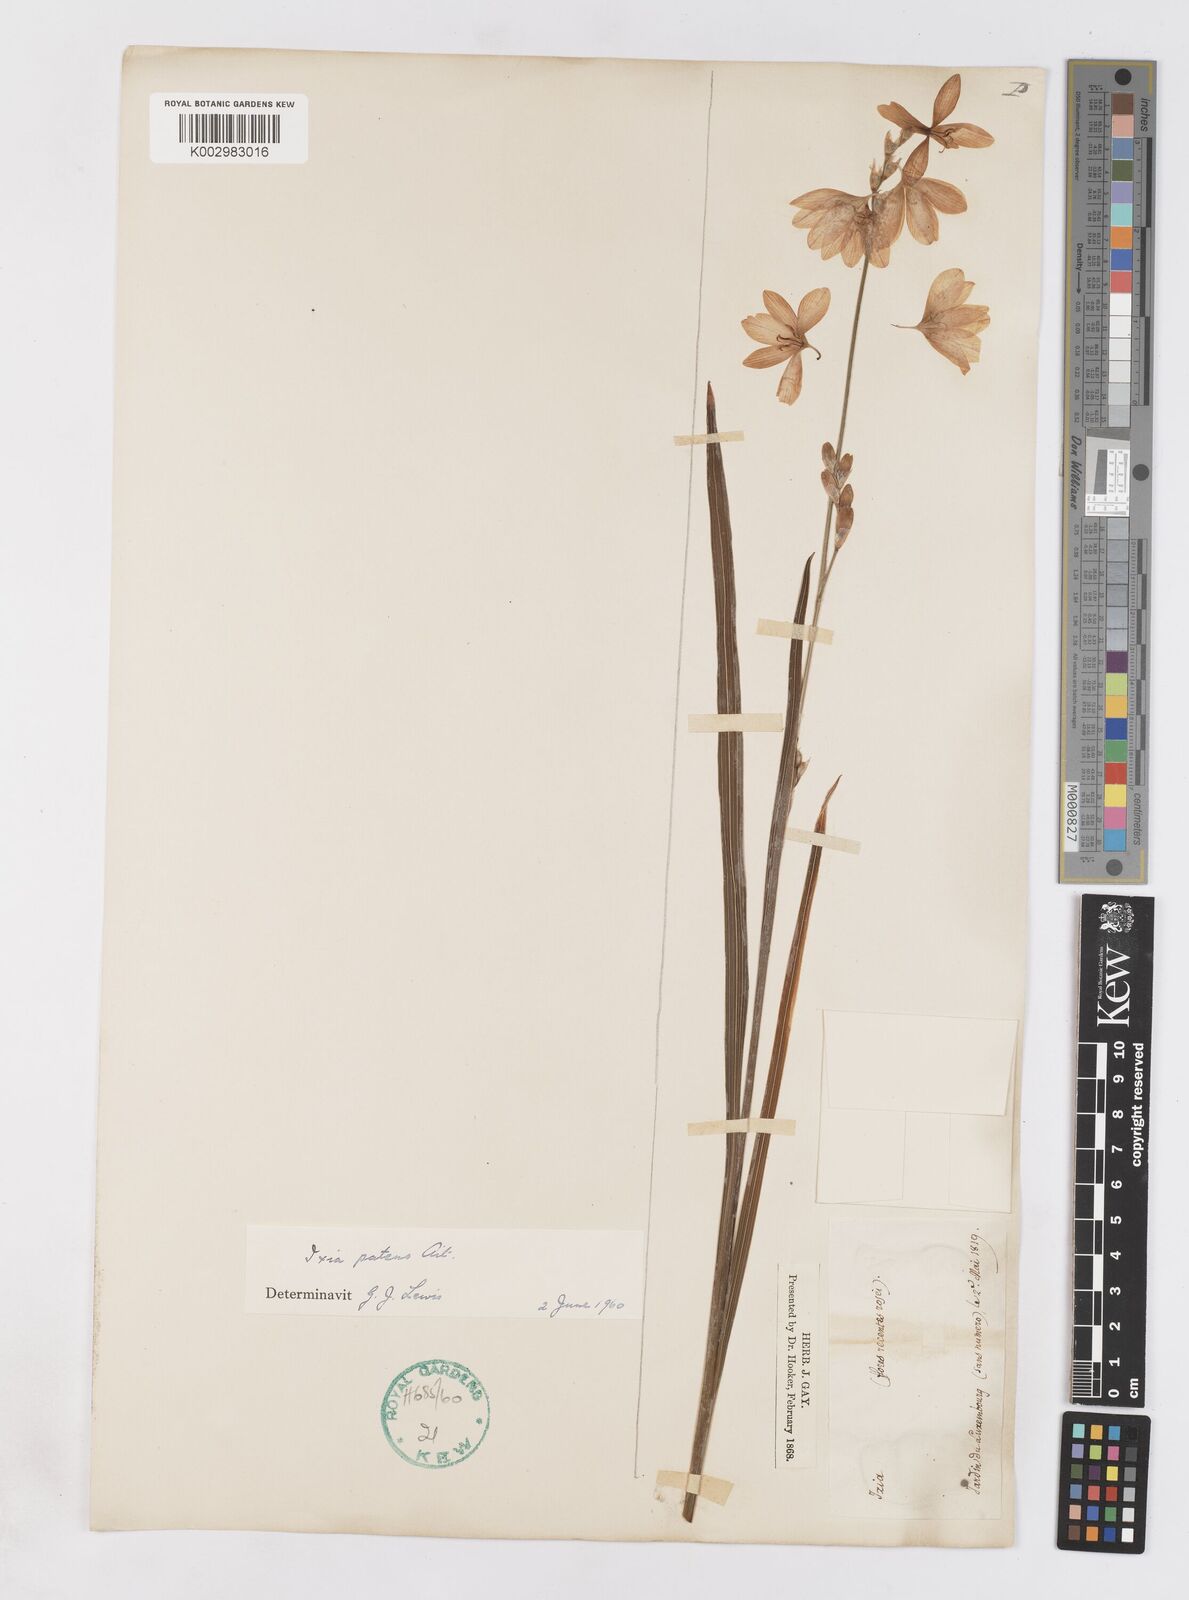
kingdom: Plantae
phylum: Tracheophyta
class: Liliopsida
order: Asparagales
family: Iridaceae
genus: Ixia
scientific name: Ixia patens
